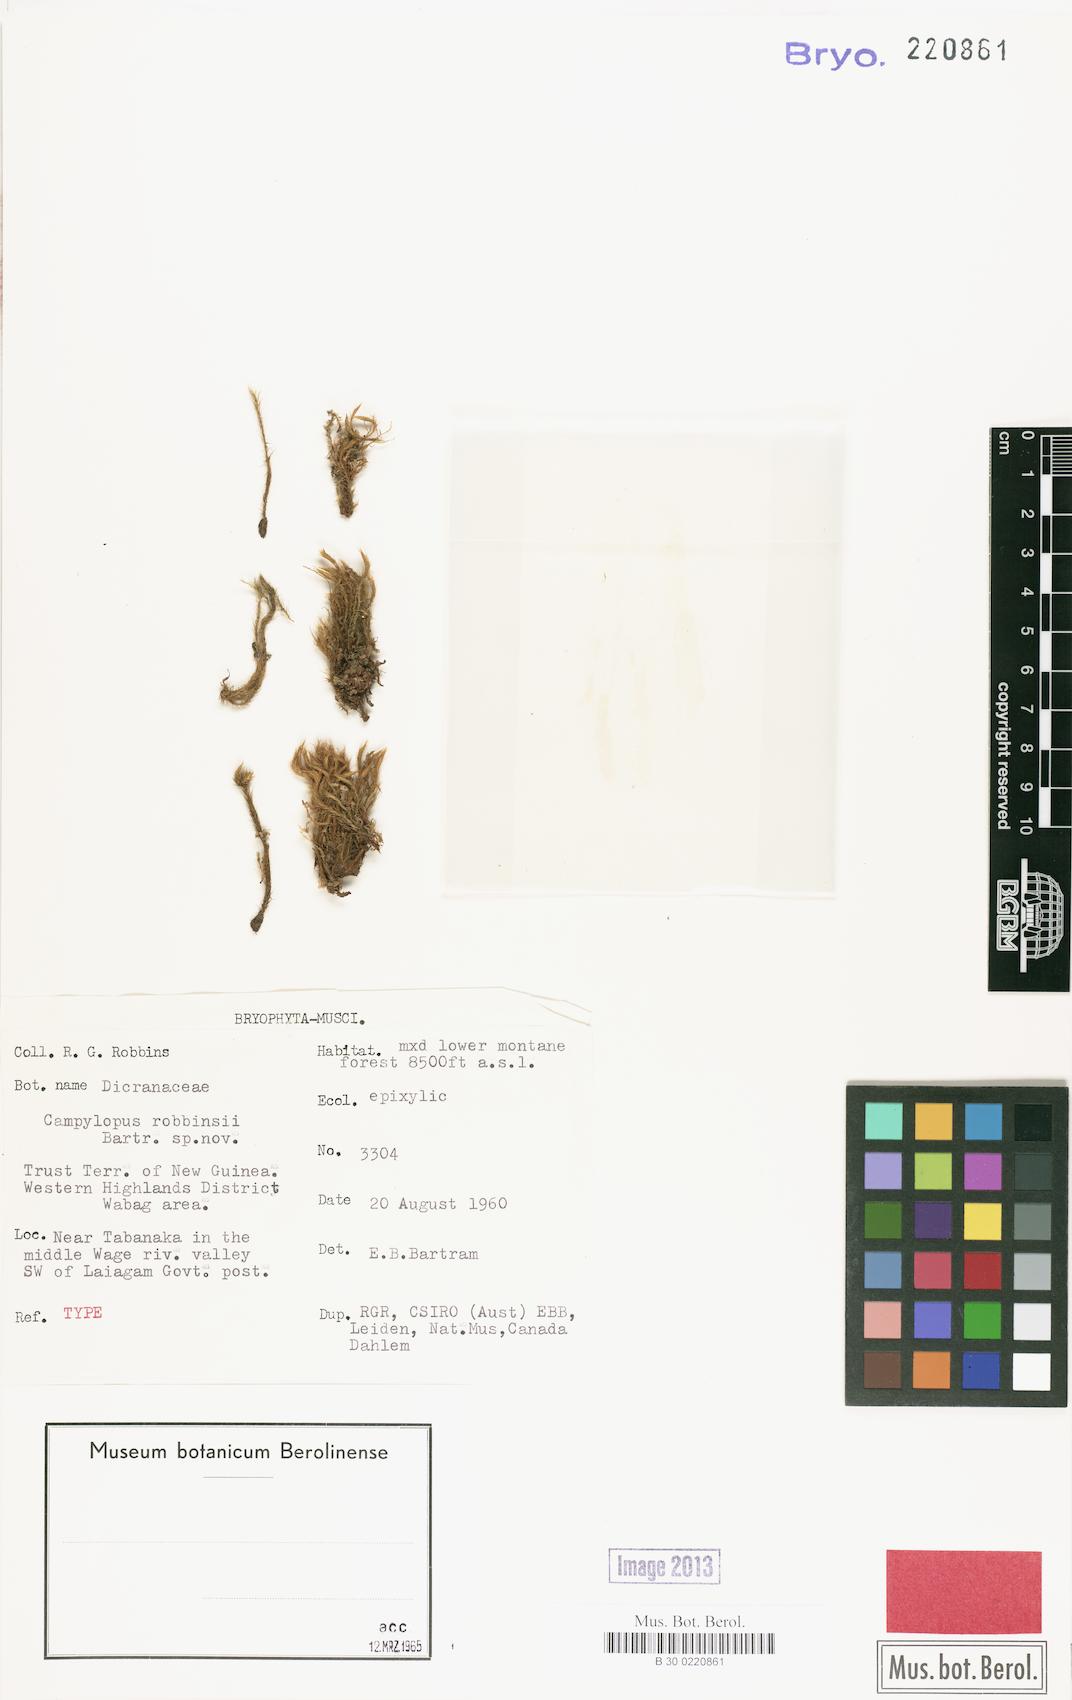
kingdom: Plantae
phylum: Bryophyta
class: Bryopsida
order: Dicranales
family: Leucobryaceae
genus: Campylopus
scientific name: Campylopus schmidii
